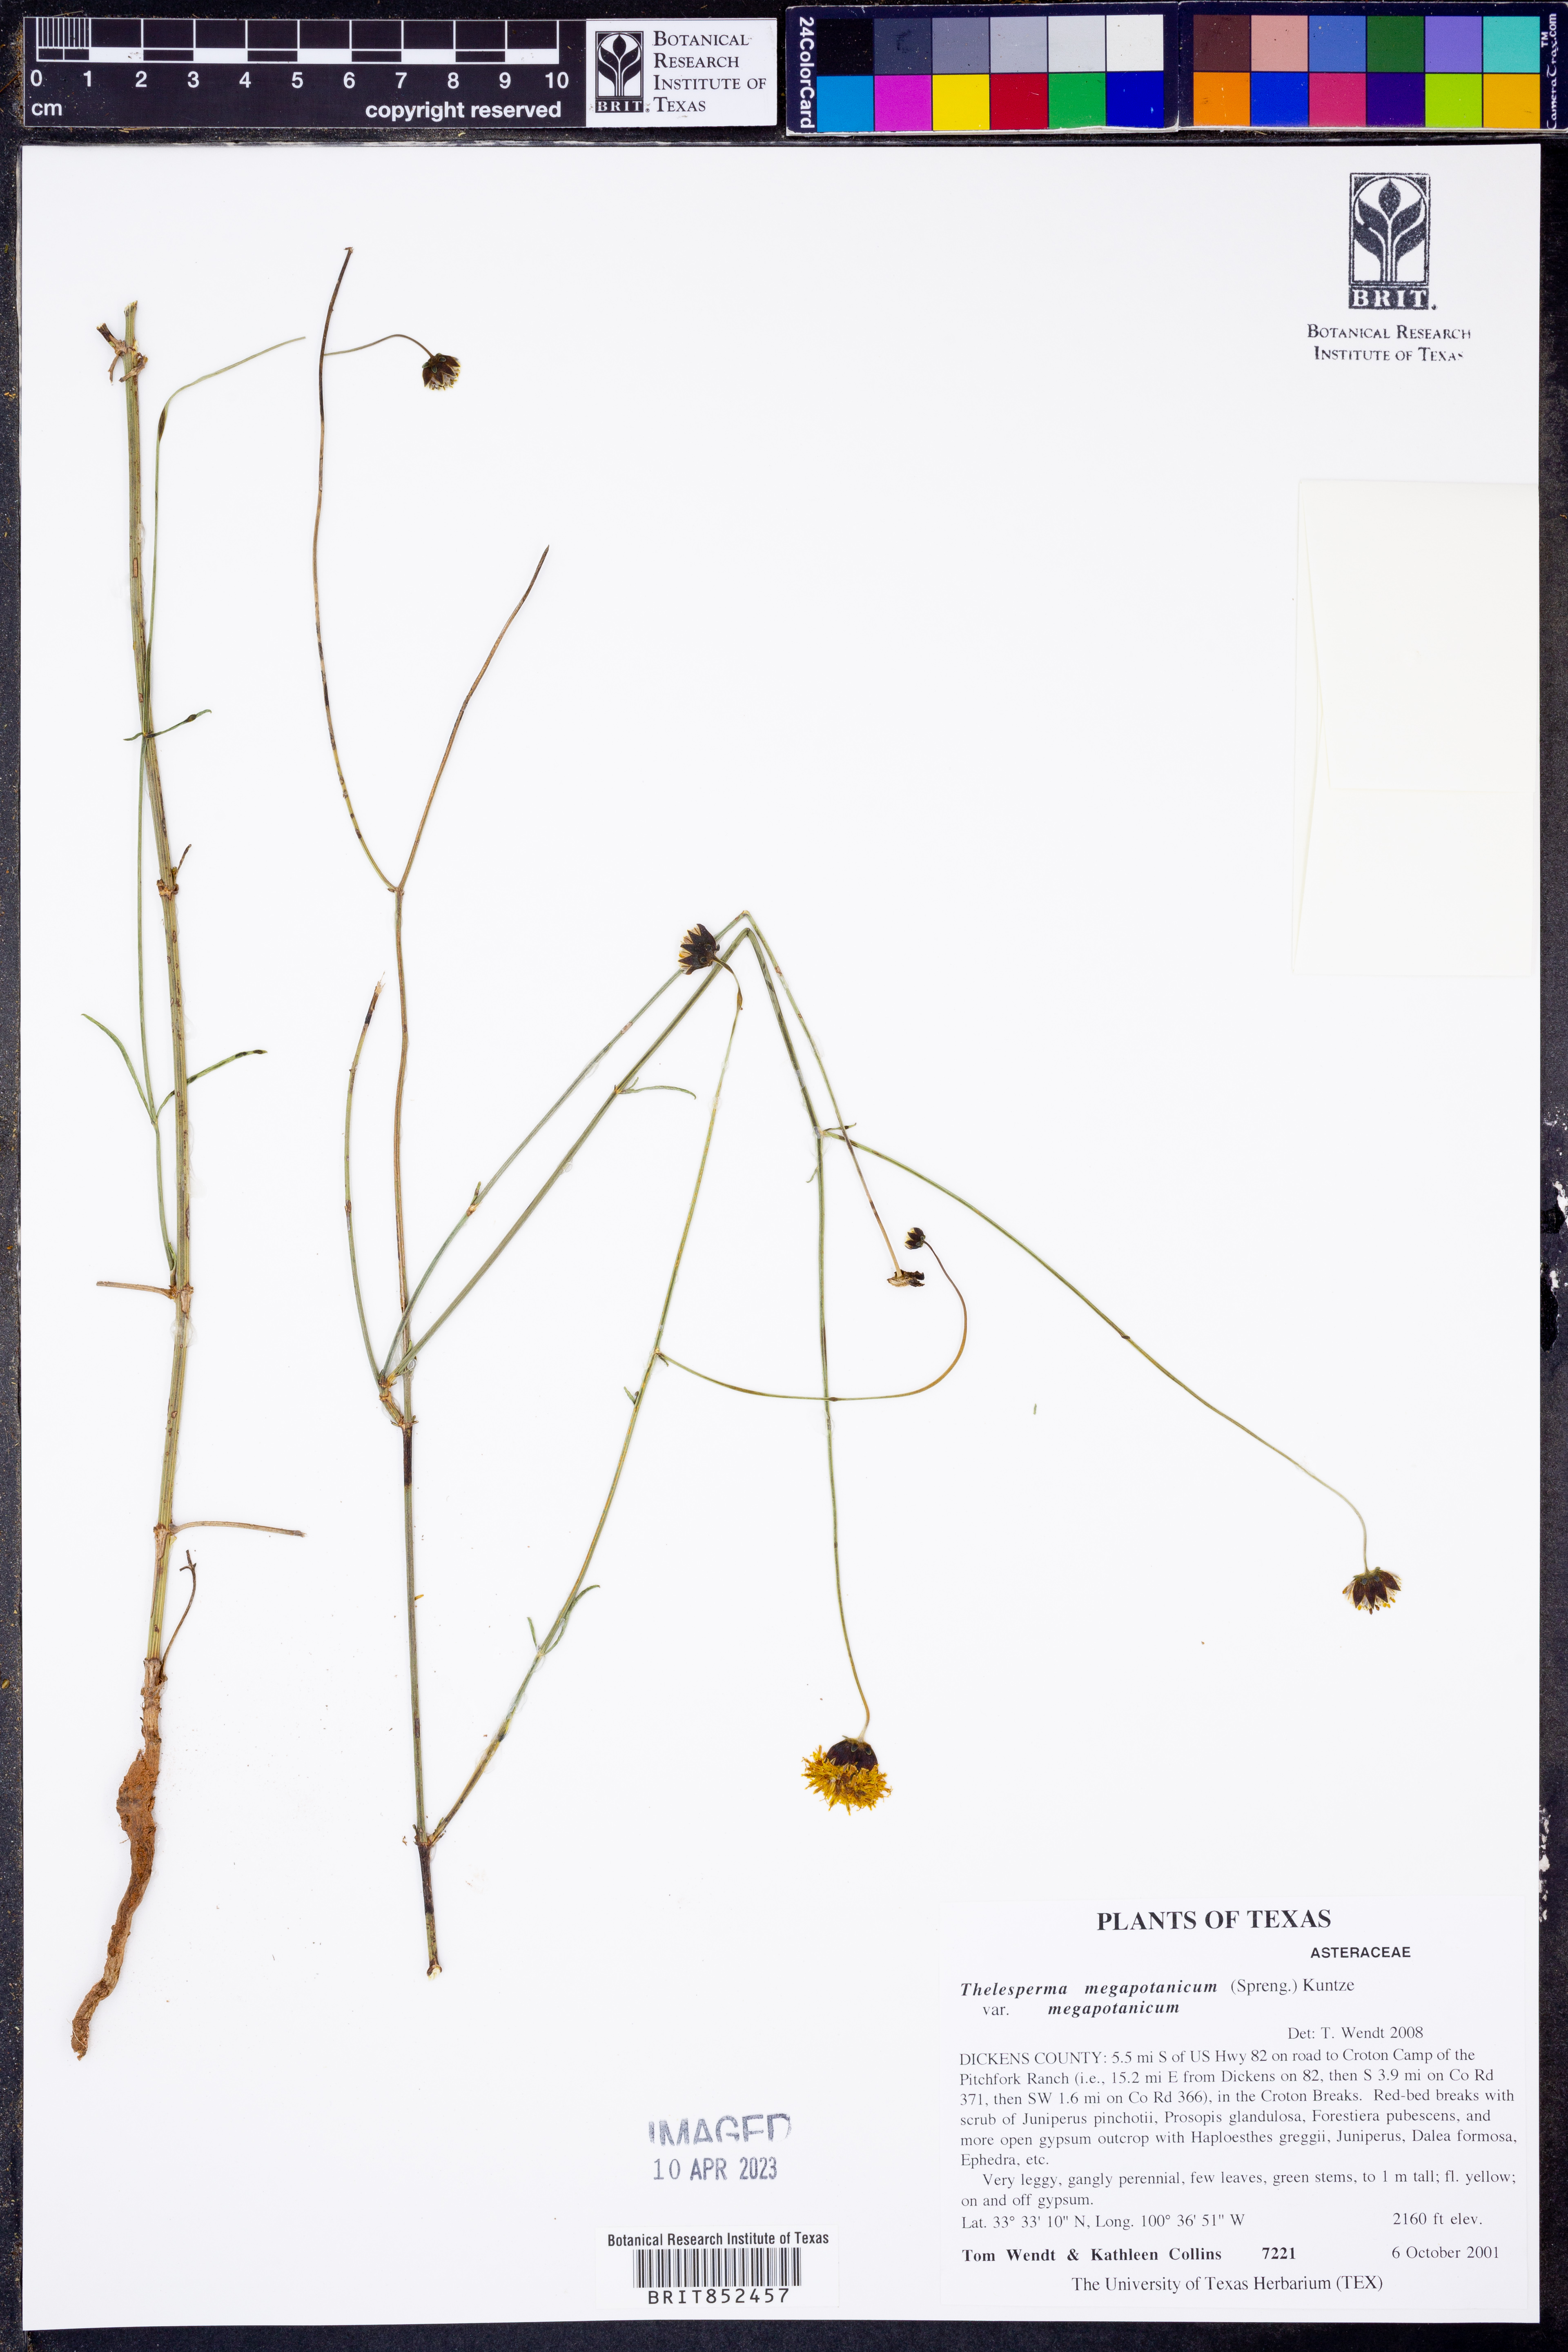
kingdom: Plantae
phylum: Tracheophyta
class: Magnoliopsida
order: Asterales
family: Asteraceae
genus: Thelesperma
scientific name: Thelesperma megapotamicum
